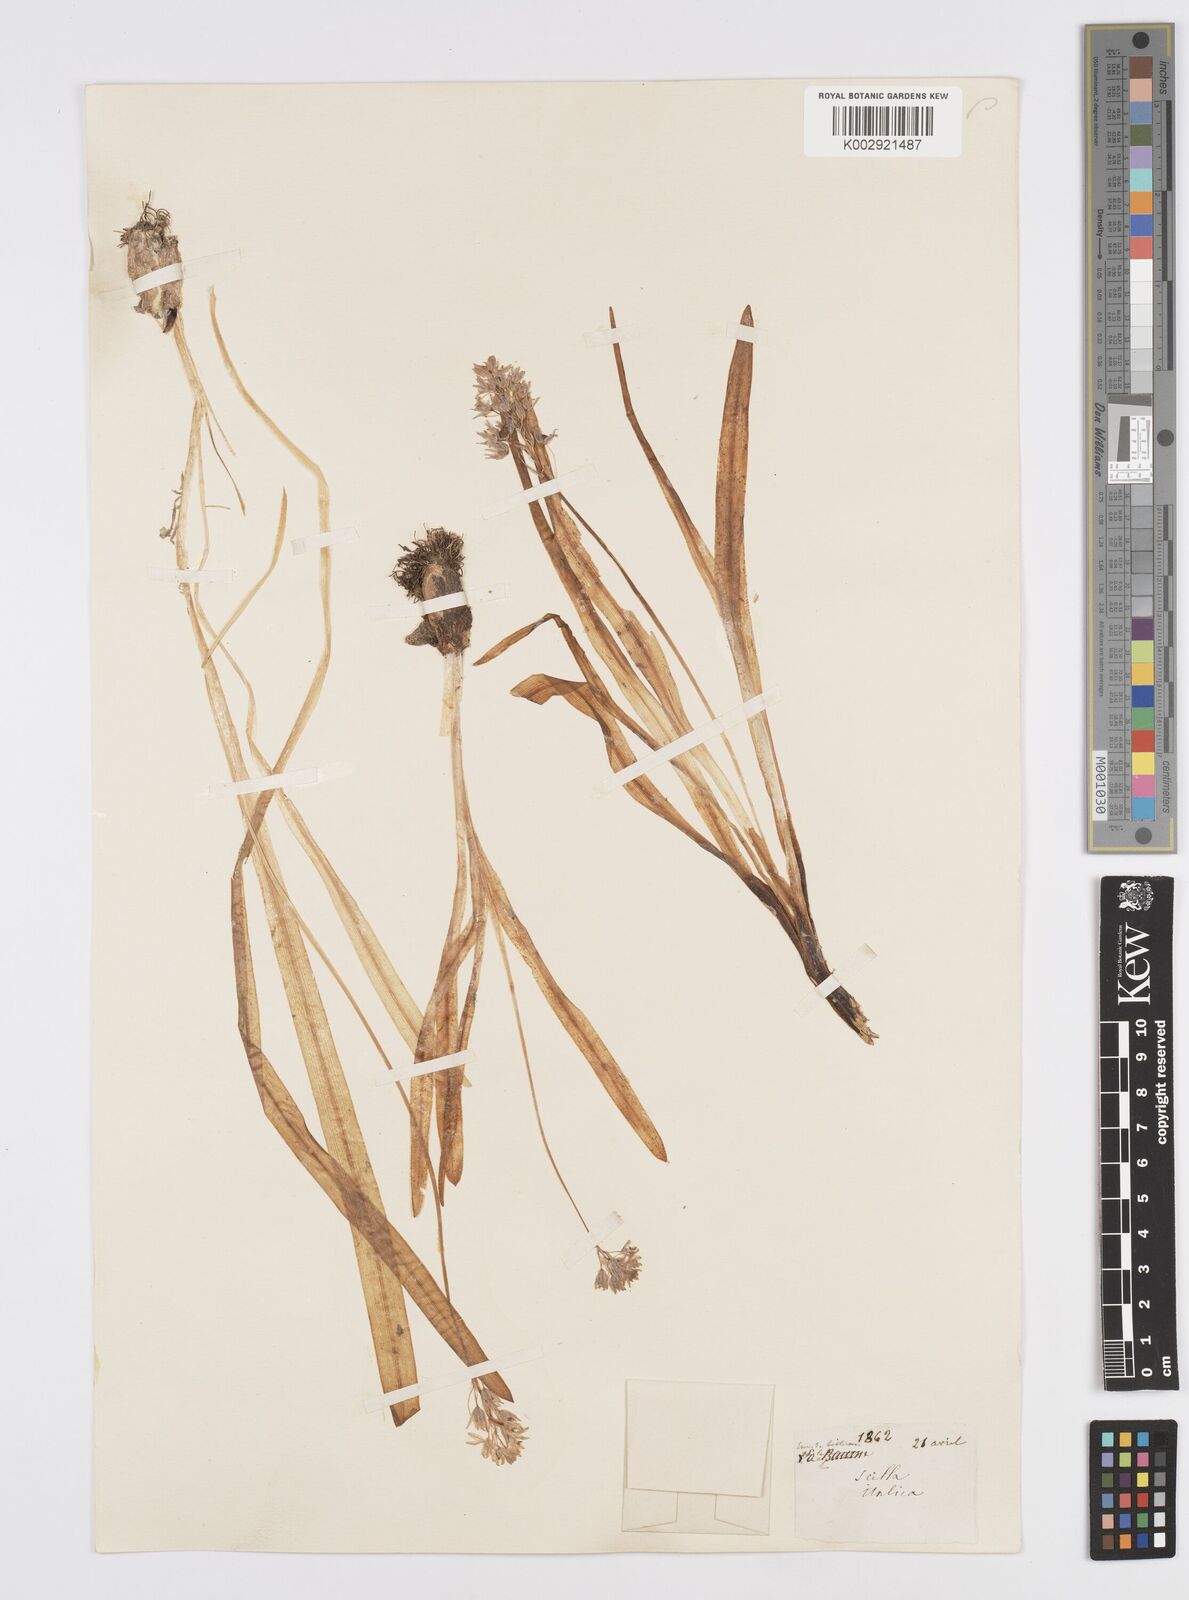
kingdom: Plantae
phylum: Tracheophyta
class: Liliopsida
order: Asparagales
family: Asparagaceae
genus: Hyacinthoides
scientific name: Hyacinthoides italica
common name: Italian bluebell
